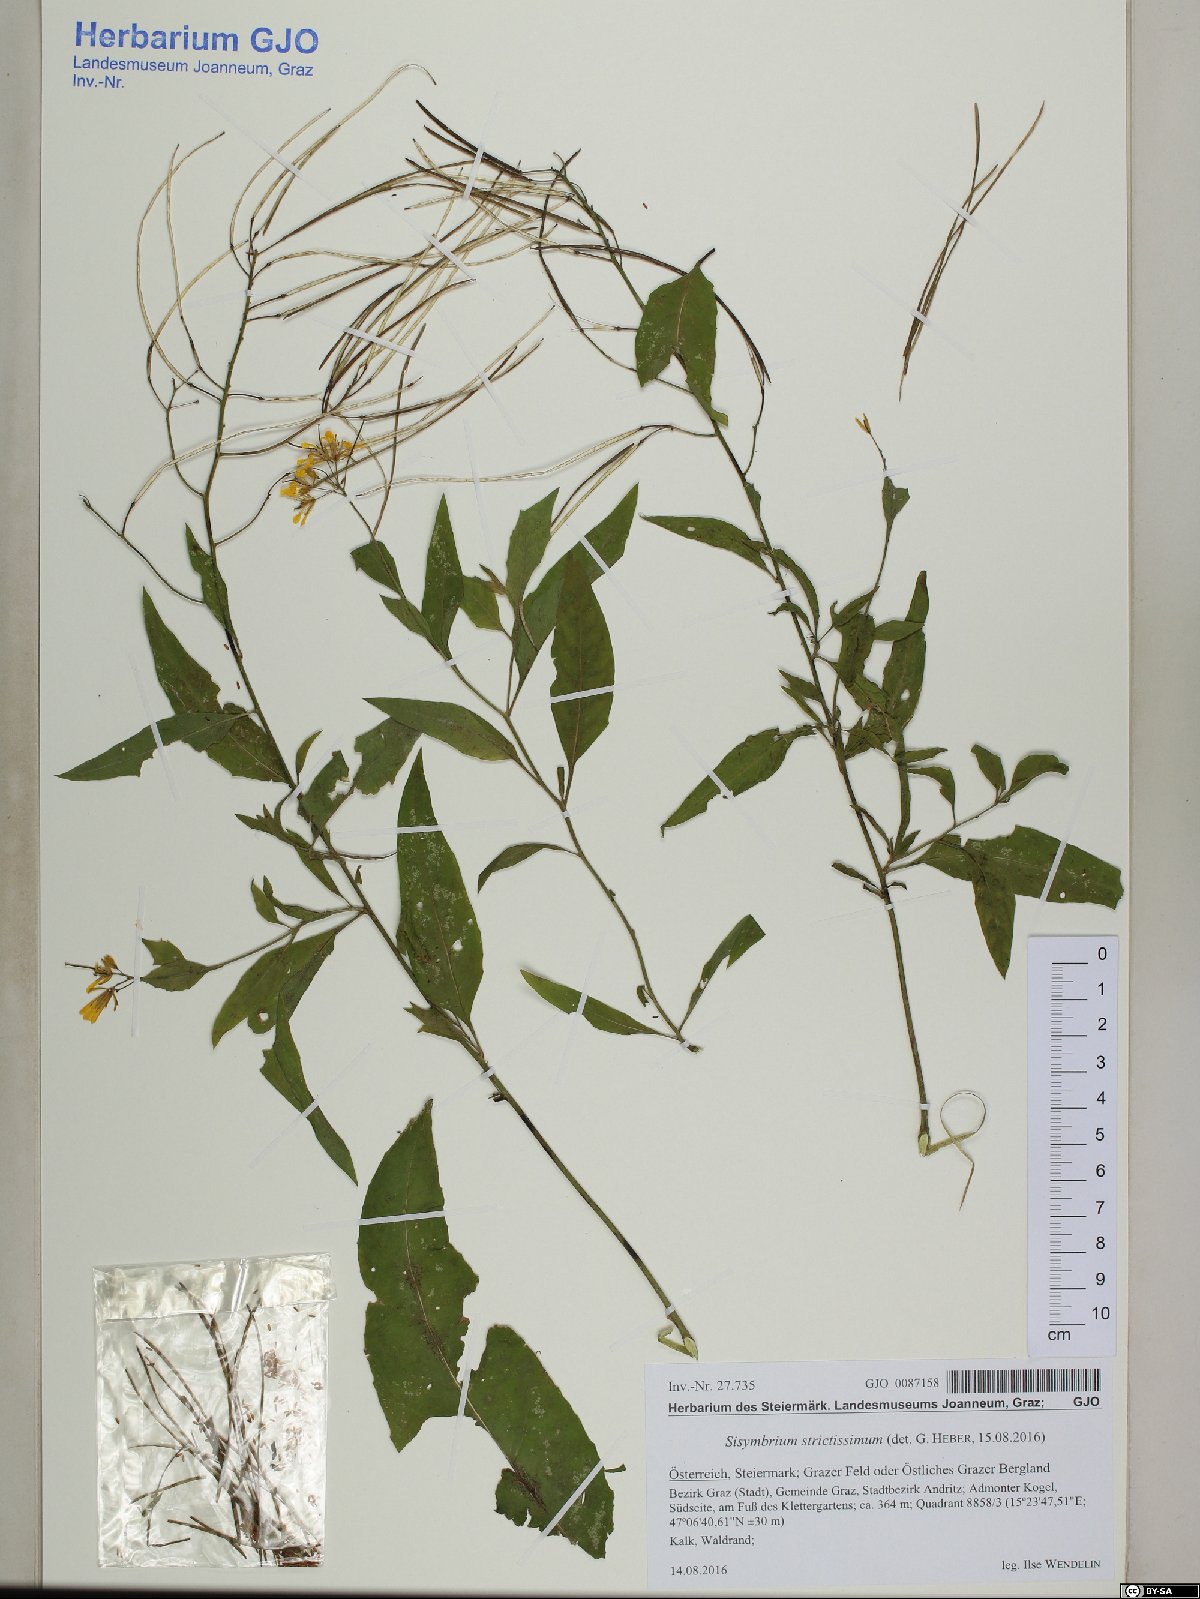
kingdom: Plantae
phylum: Tracheophyta
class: Magnoliopsida
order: Brassicales
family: Brassicaceae
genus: Sisymbrium
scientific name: Sisymbrium strictissimum
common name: Perennial rocket
